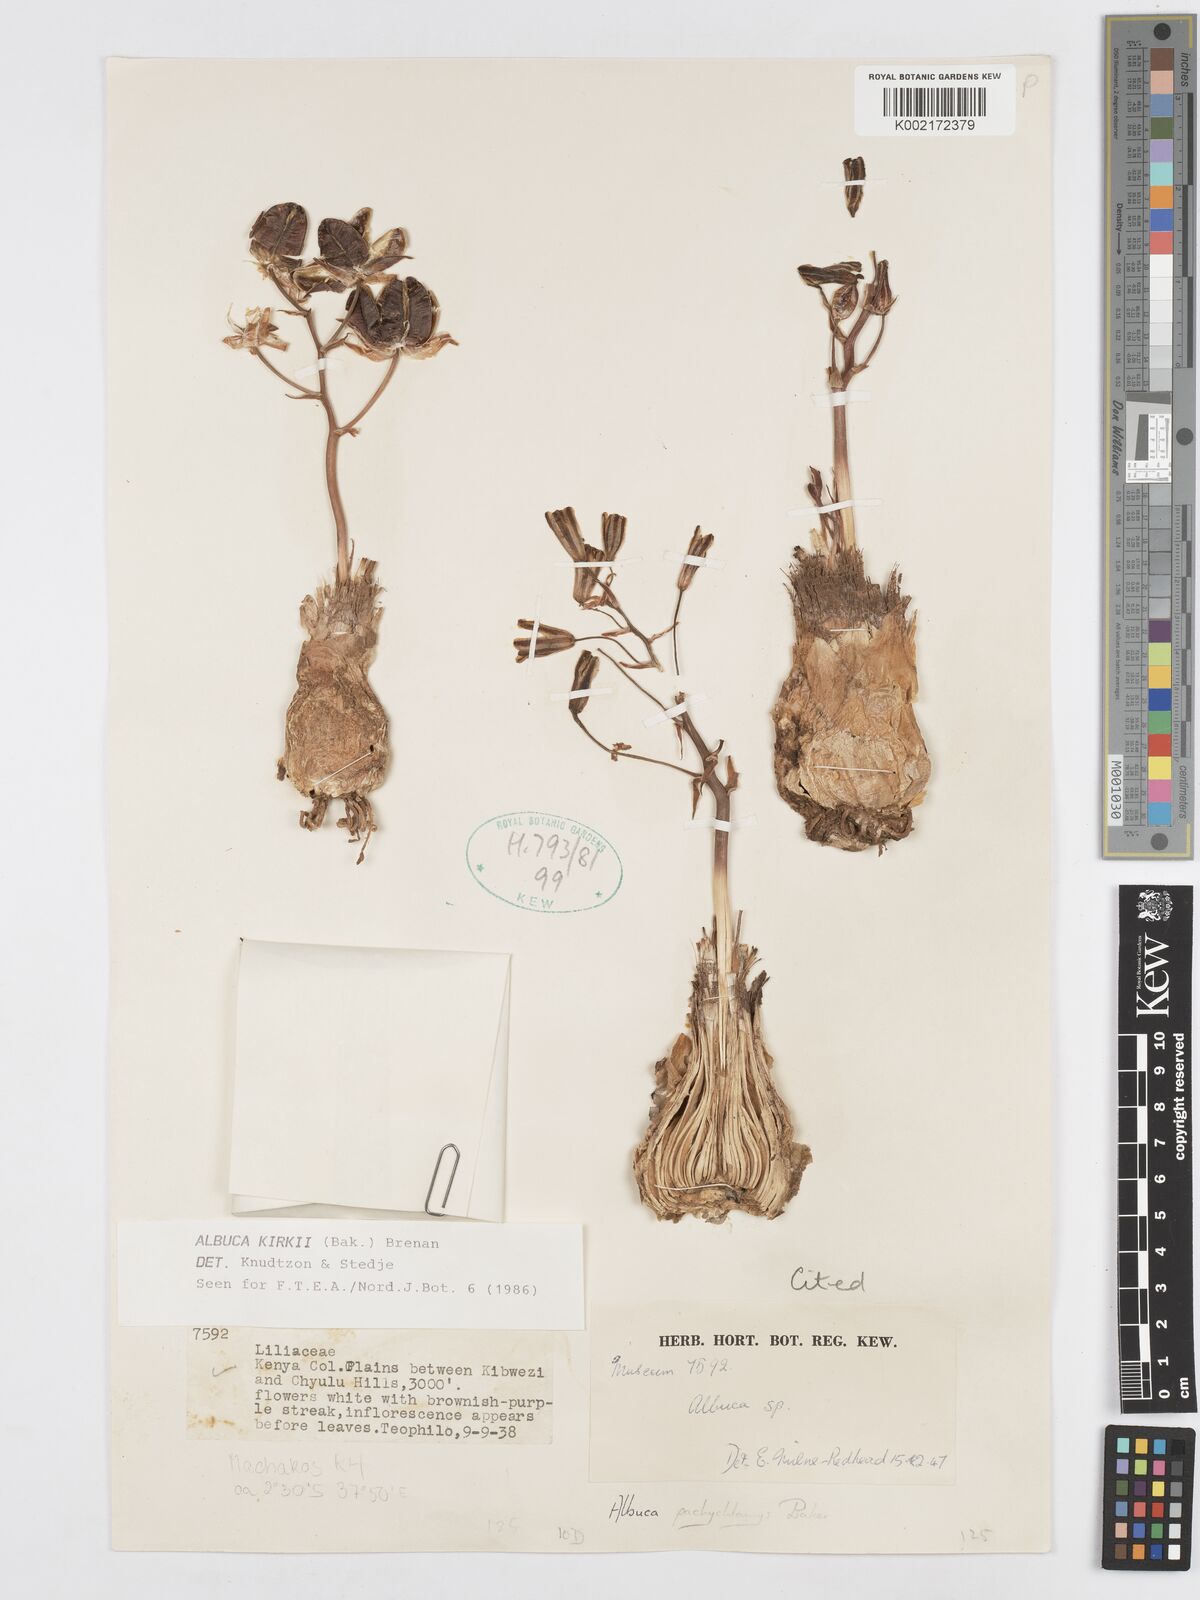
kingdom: Plantae
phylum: Tracheophyta
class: Liliopsida
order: Asparagales
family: Asparagaceae
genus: Albuca
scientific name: Albuca kirkii
